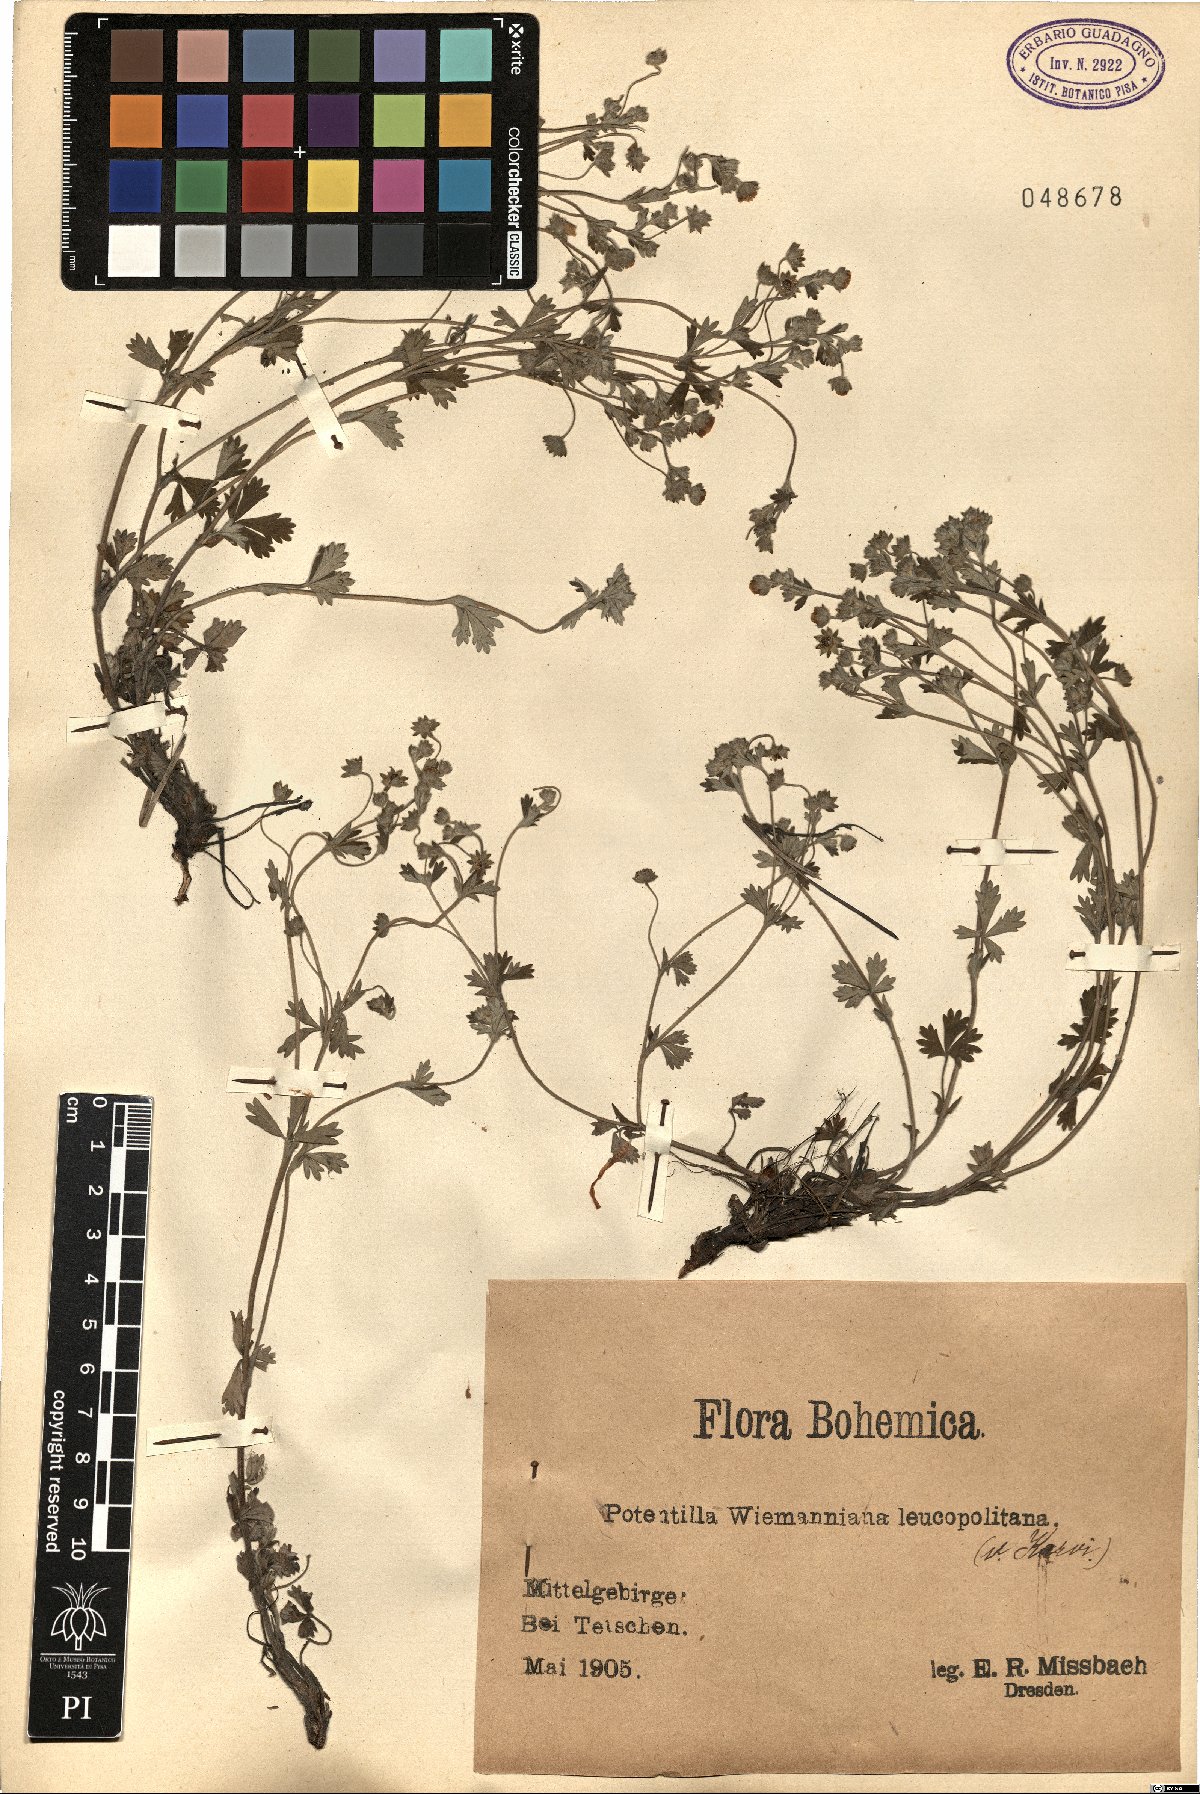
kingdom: Plantae
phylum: Tracheophyta
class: Magnoliopsida
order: Rosales
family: Rosaceae
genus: Potentilla
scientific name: Potentilla wimanniana
